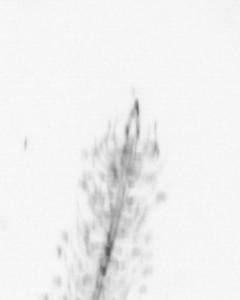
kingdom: Chromista
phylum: Ochrophyta
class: Bacillariophyceae
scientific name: Bacillariophyceae
